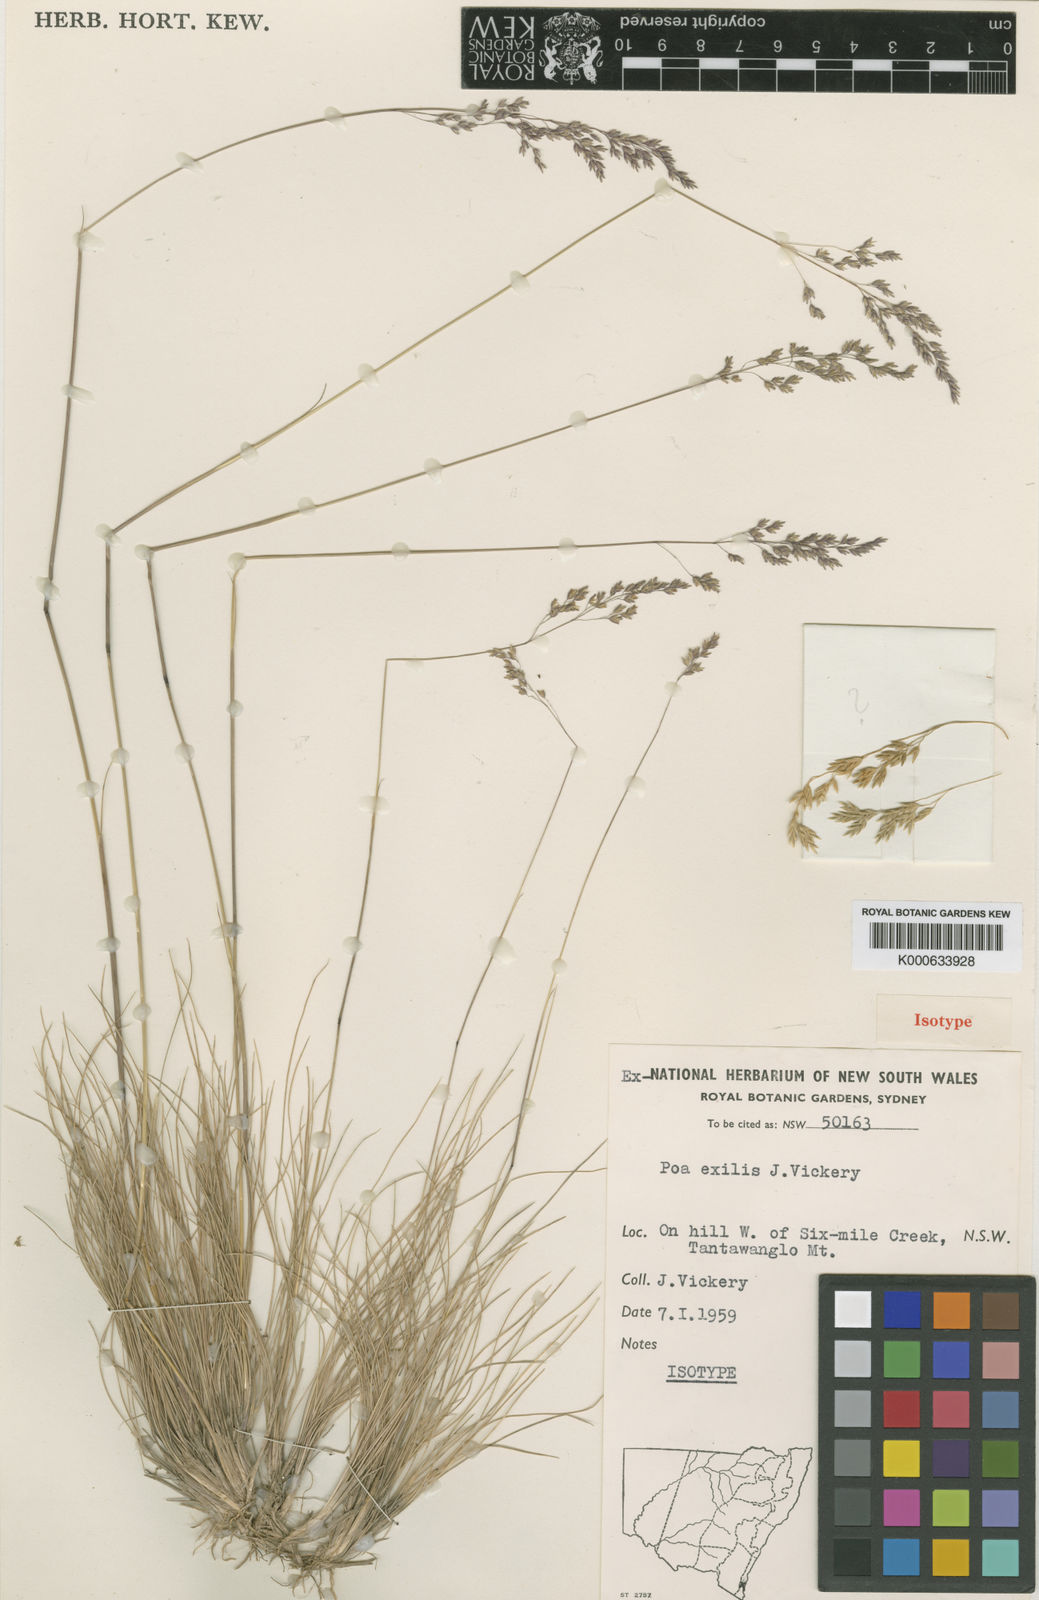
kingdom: Plantae
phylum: Tracheophyta
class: Liliopsida
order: Poales
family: Poaceae
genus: Poa
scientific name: Poa meionectes
